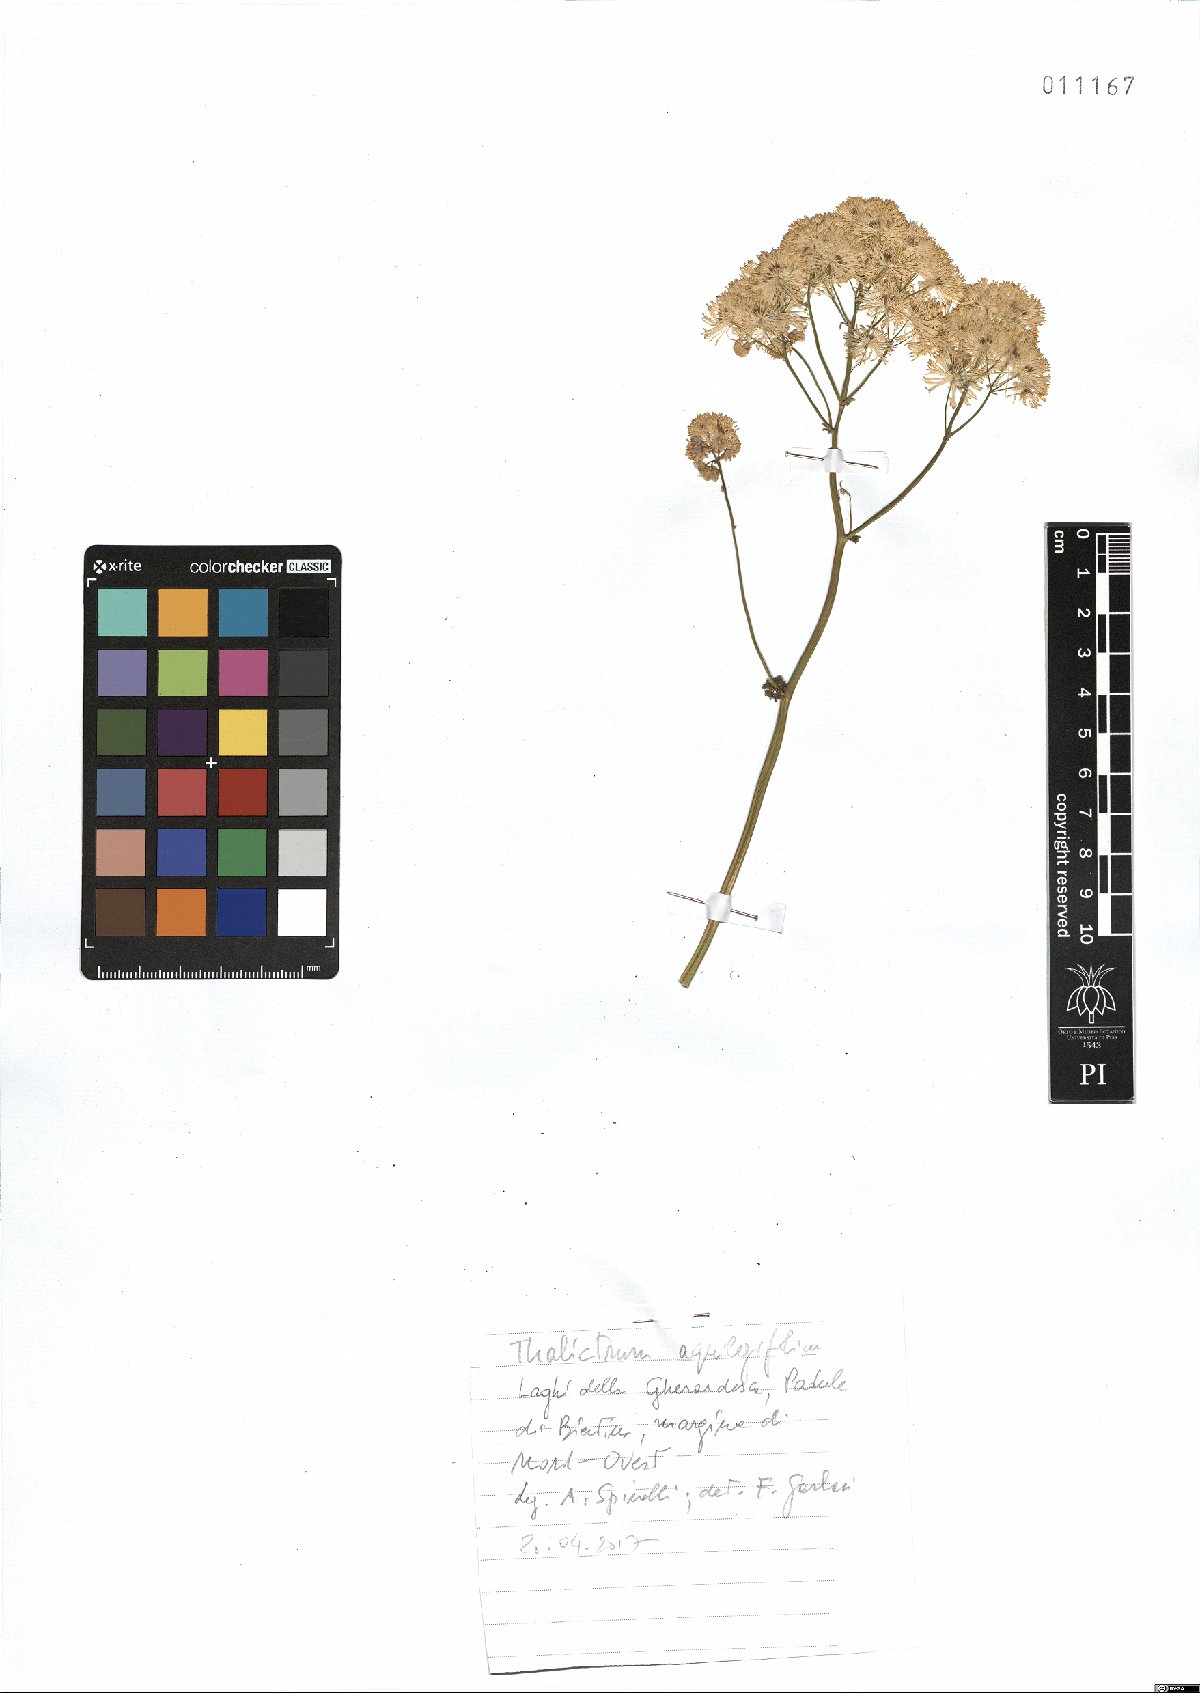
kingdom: Plantae
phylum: Tracheophyta
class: Magnoliopsida
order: Ranunculales
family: Ranunculaceae
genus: Thalictrum
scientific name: Thalictrum aquilegiifolium
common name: French meadow-rue
